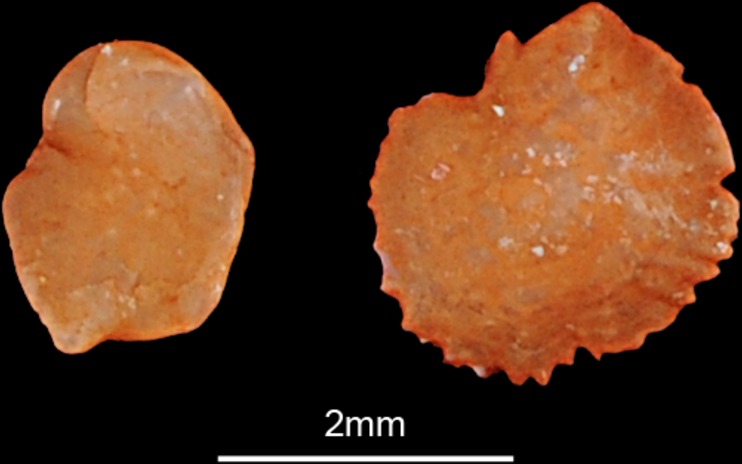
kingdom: Animalia
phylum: Chordata
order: Cypriniformes
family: Cyprinidae
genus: Alburnus
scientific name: Alburnus alburnus
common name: Bleak
